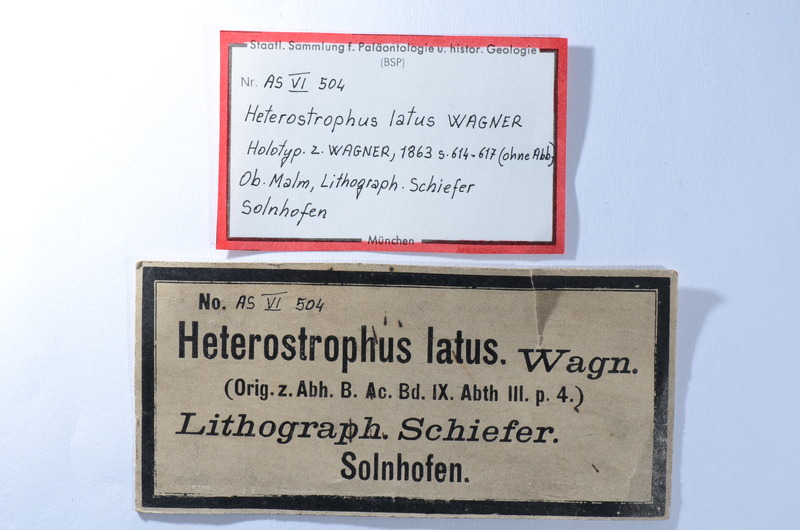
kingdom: Animalia
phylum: Chordata
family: Dapediidae
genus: Heterostrophus
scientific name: Heterostrophus latus
